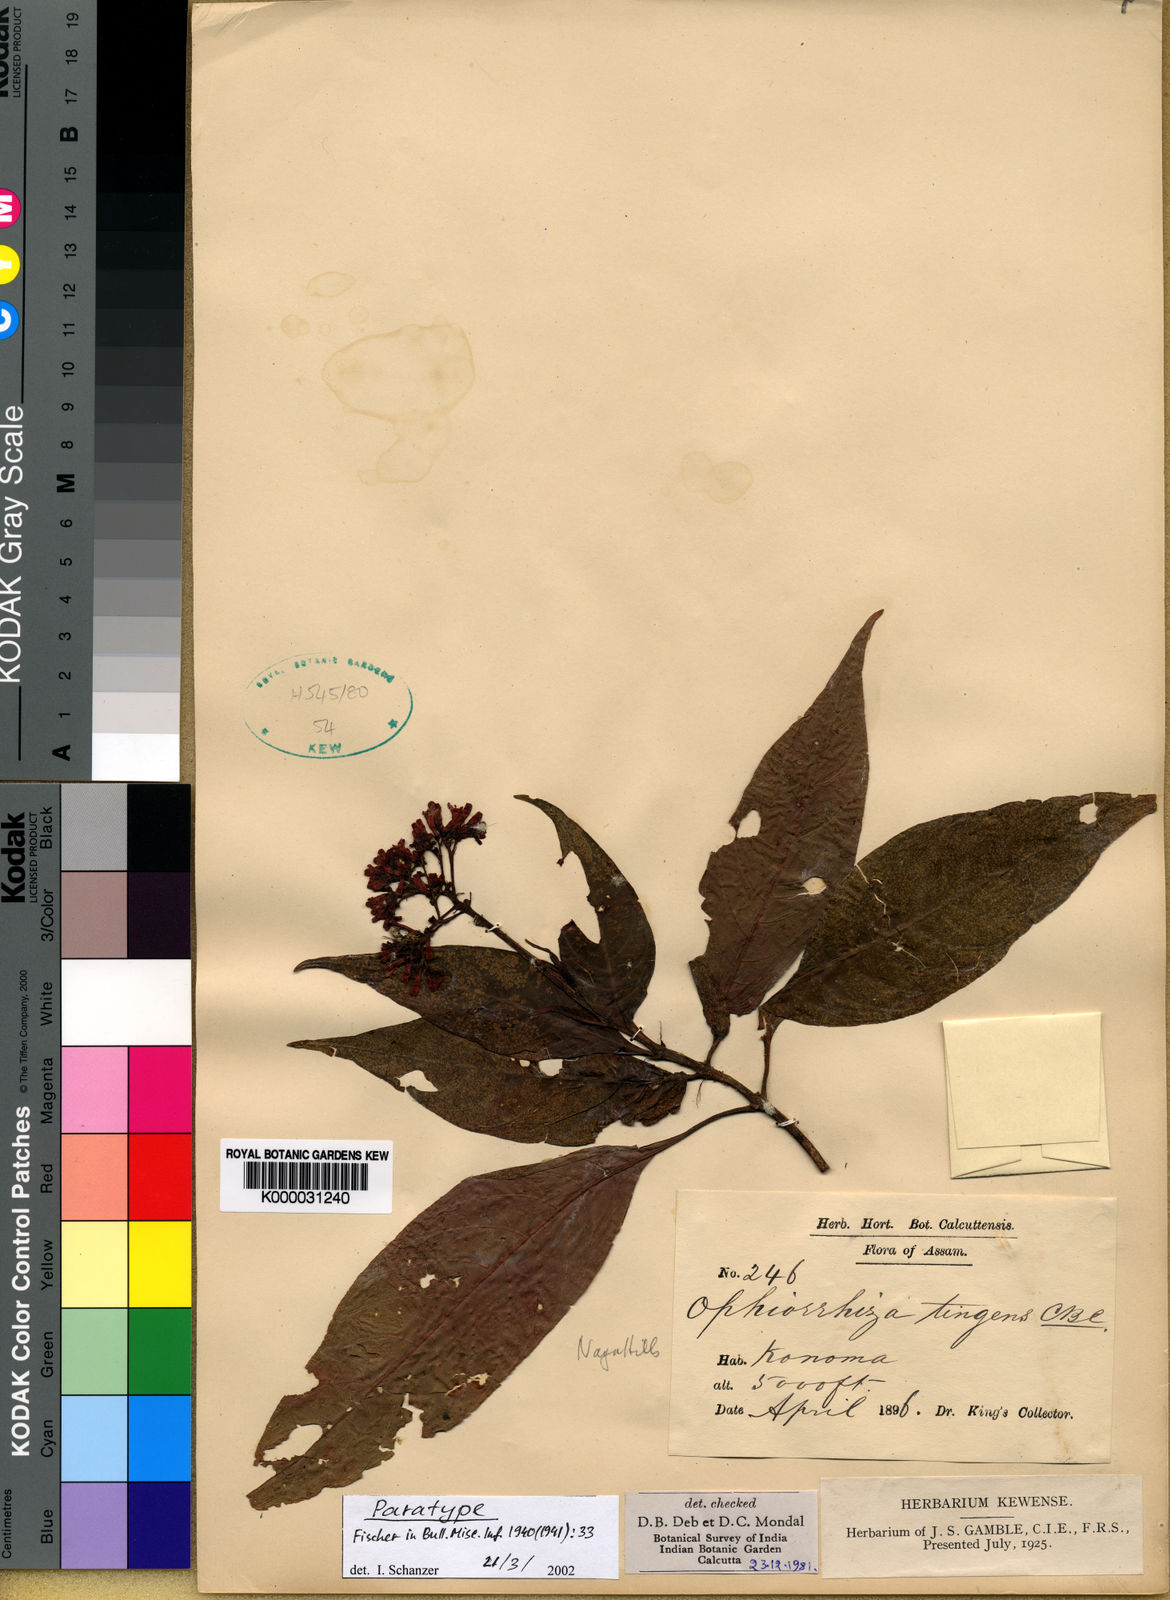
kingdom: Plantae
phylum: Tracheophyta
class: Magnoliopsida
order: Gentianales
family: Rubiaceae
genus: Ophiorrhiza
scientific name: Ophiorrhiza
